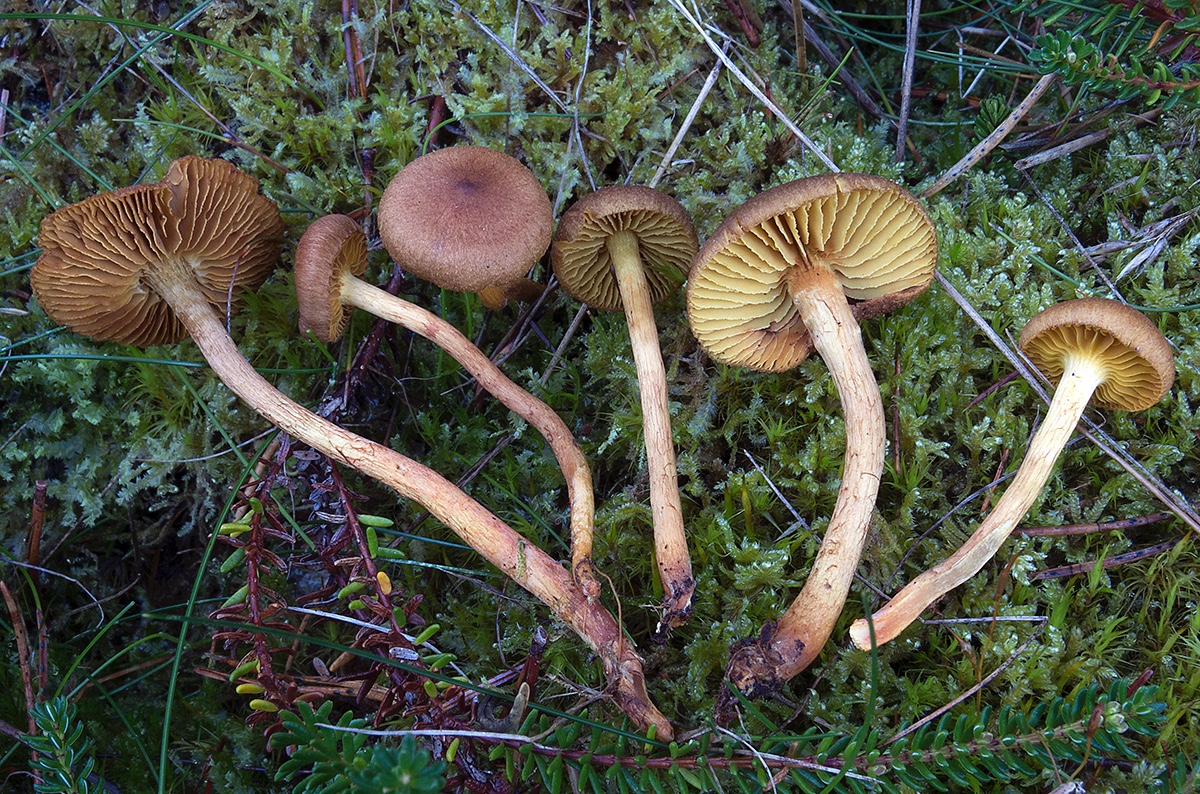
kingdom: Fungi
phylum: Basidiomycota
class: Agaricomycetes
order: Agaricales
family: Cortinariaceae
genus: Cortinarius
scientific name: Cortinarius bataillei
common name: orangefodet slørhat
